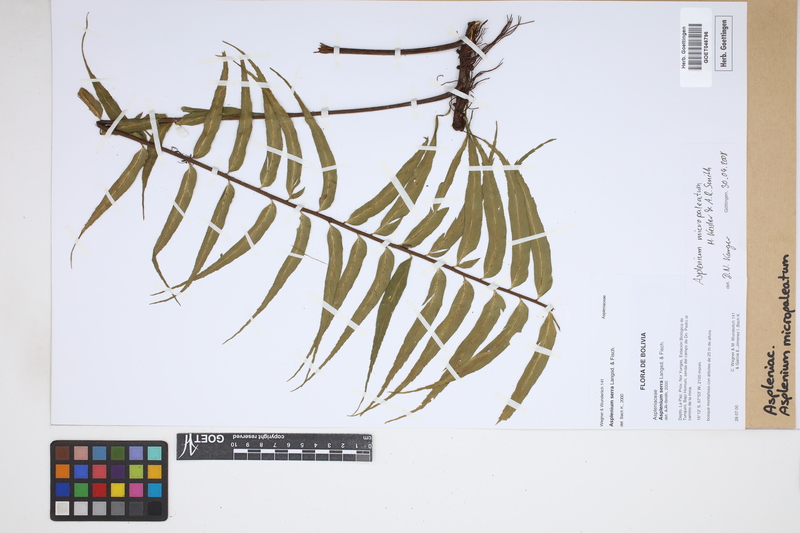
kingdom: Plantae
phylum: Tracheophyta
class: Polypodiopsida
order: Polypodiales
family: Aspleniaceae
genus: Asplenium
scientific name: Asplenium micropaleatum
